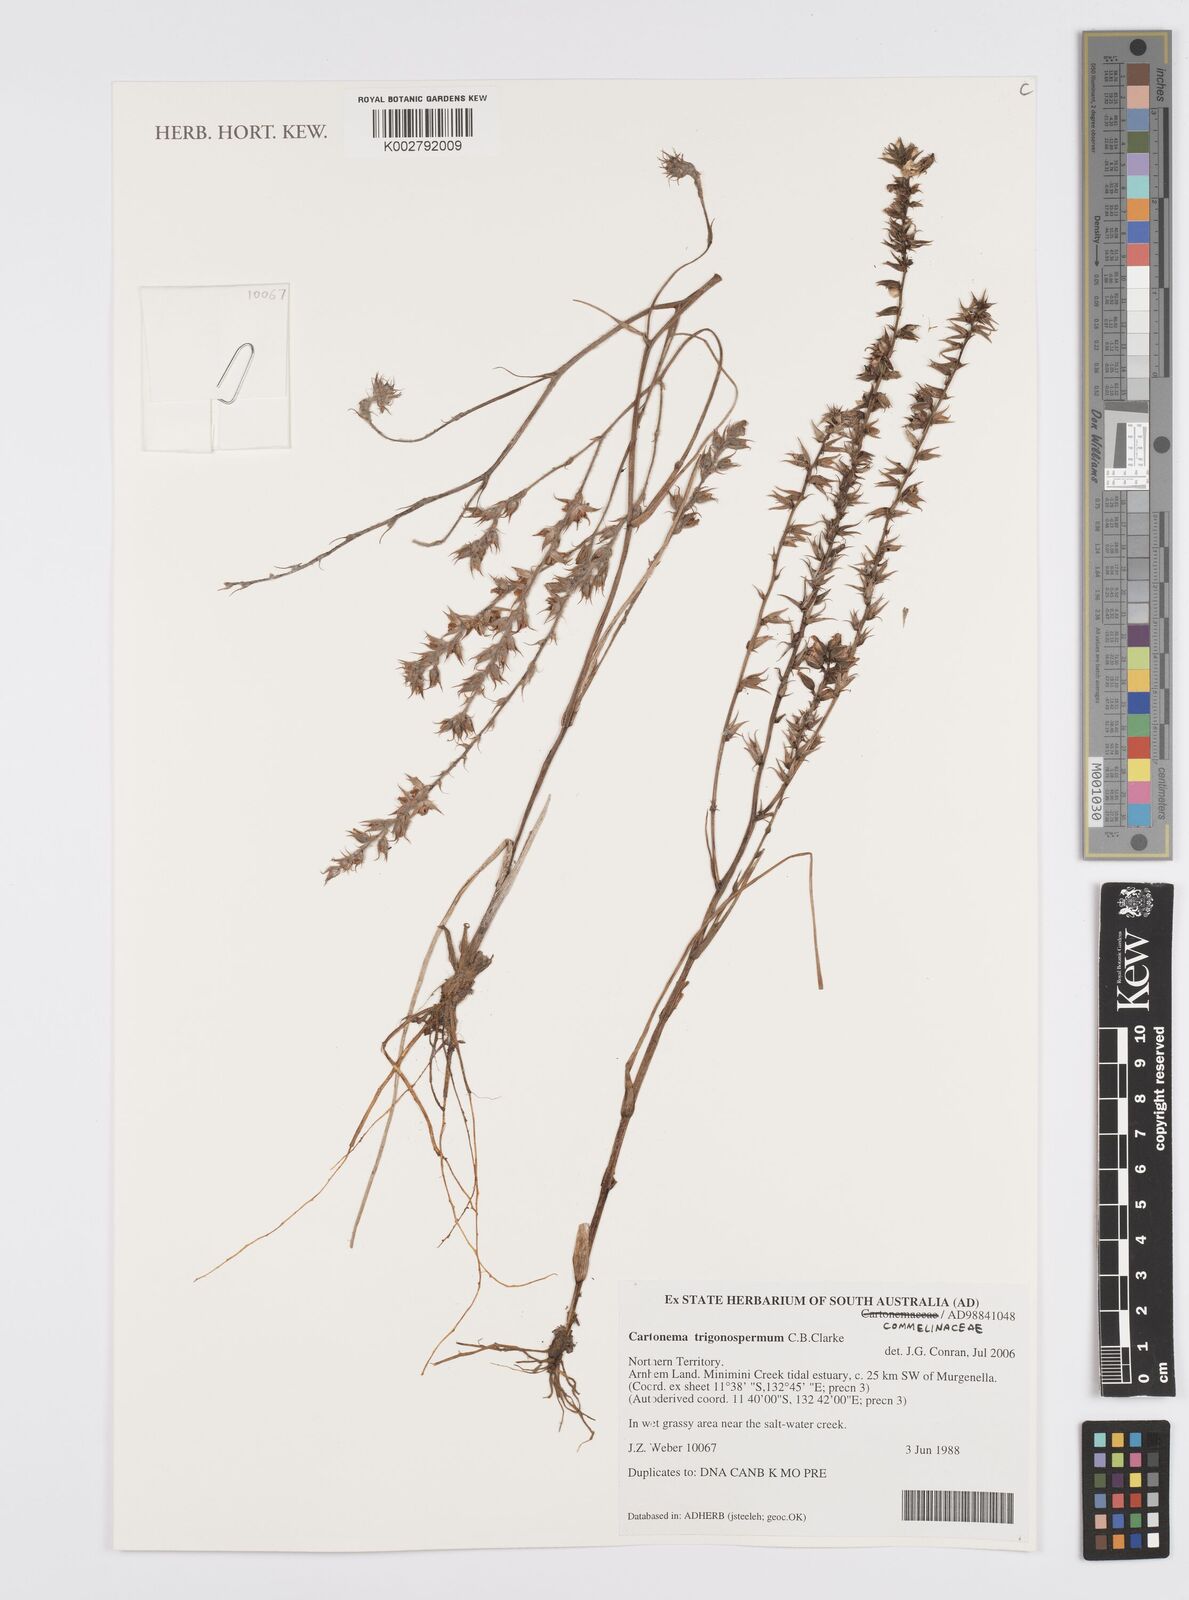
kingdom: Plantae
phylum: Tracheophyta
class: Liliopsida
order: Commelinales
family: Commelinaceae
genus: Cartonema
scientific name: Cartonema trigonospermum
